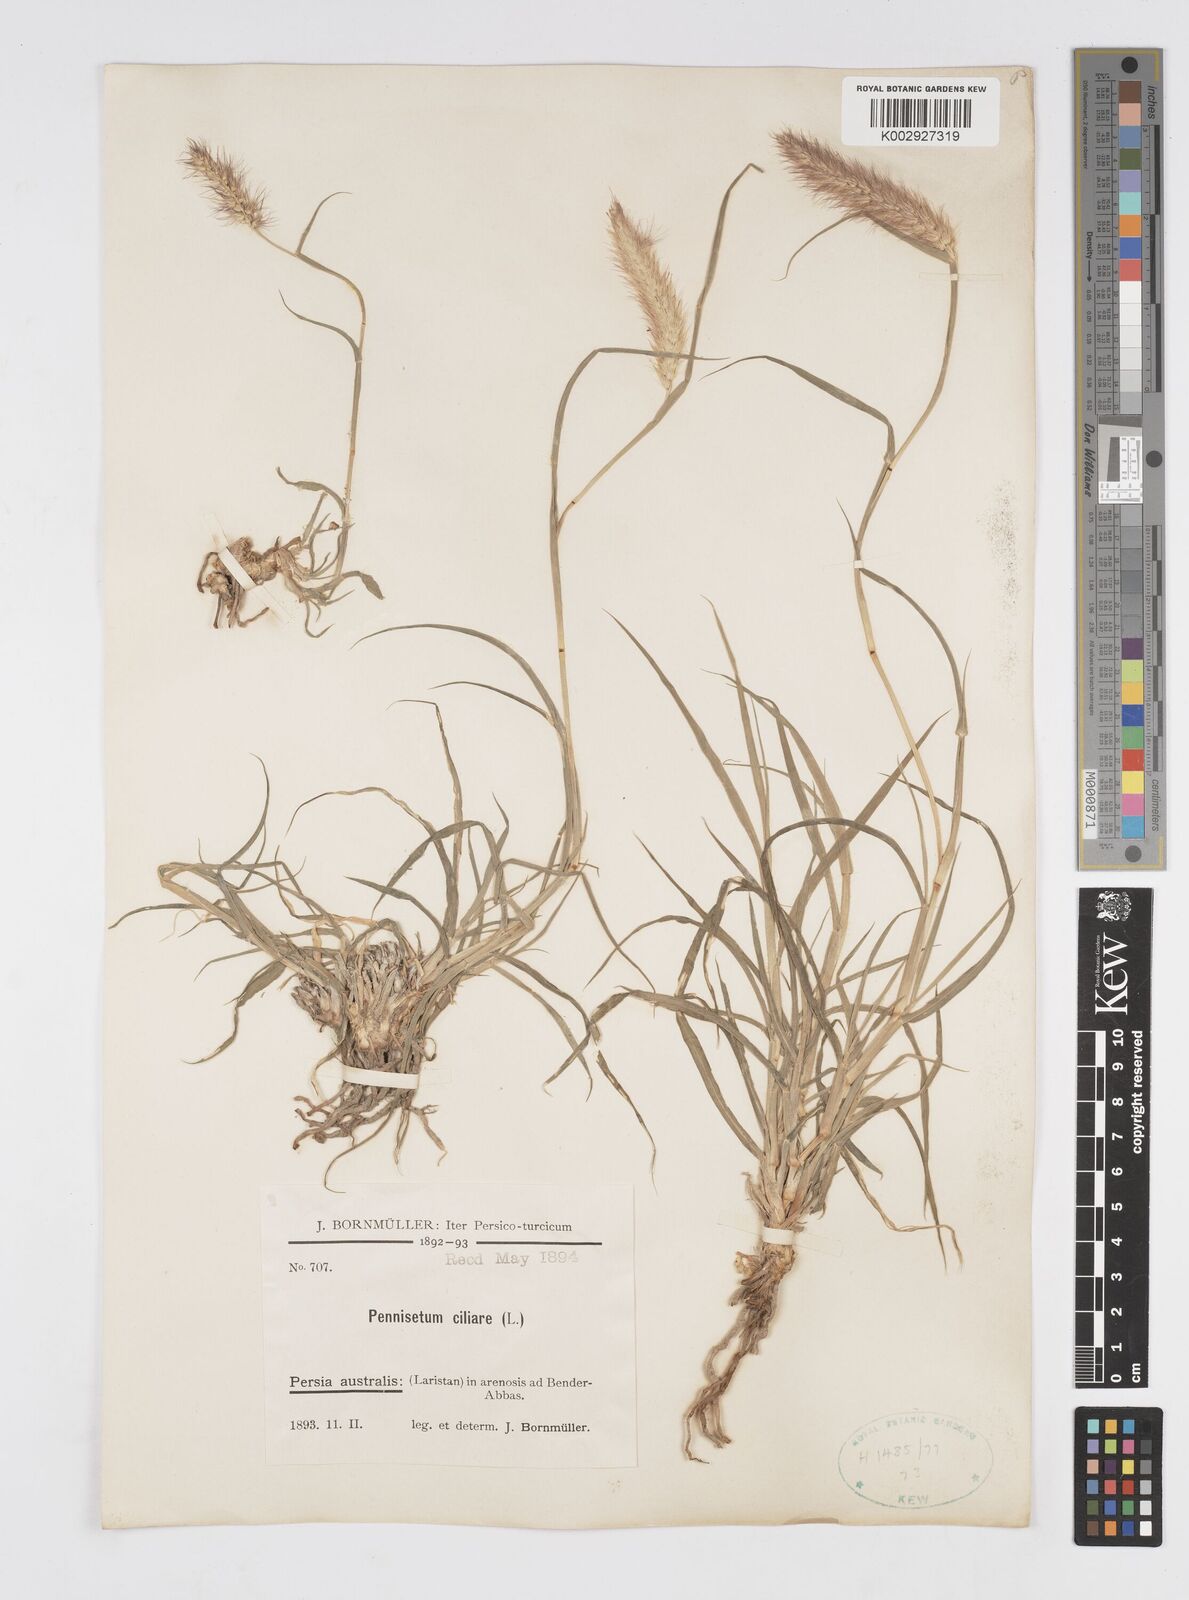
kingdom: Plantae
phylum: Tracheophyta
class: Liliopsida
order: Poales
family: Poaceae
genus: Cenchrus
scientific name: Cenchrus ciliaris
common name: Buffelgrass
